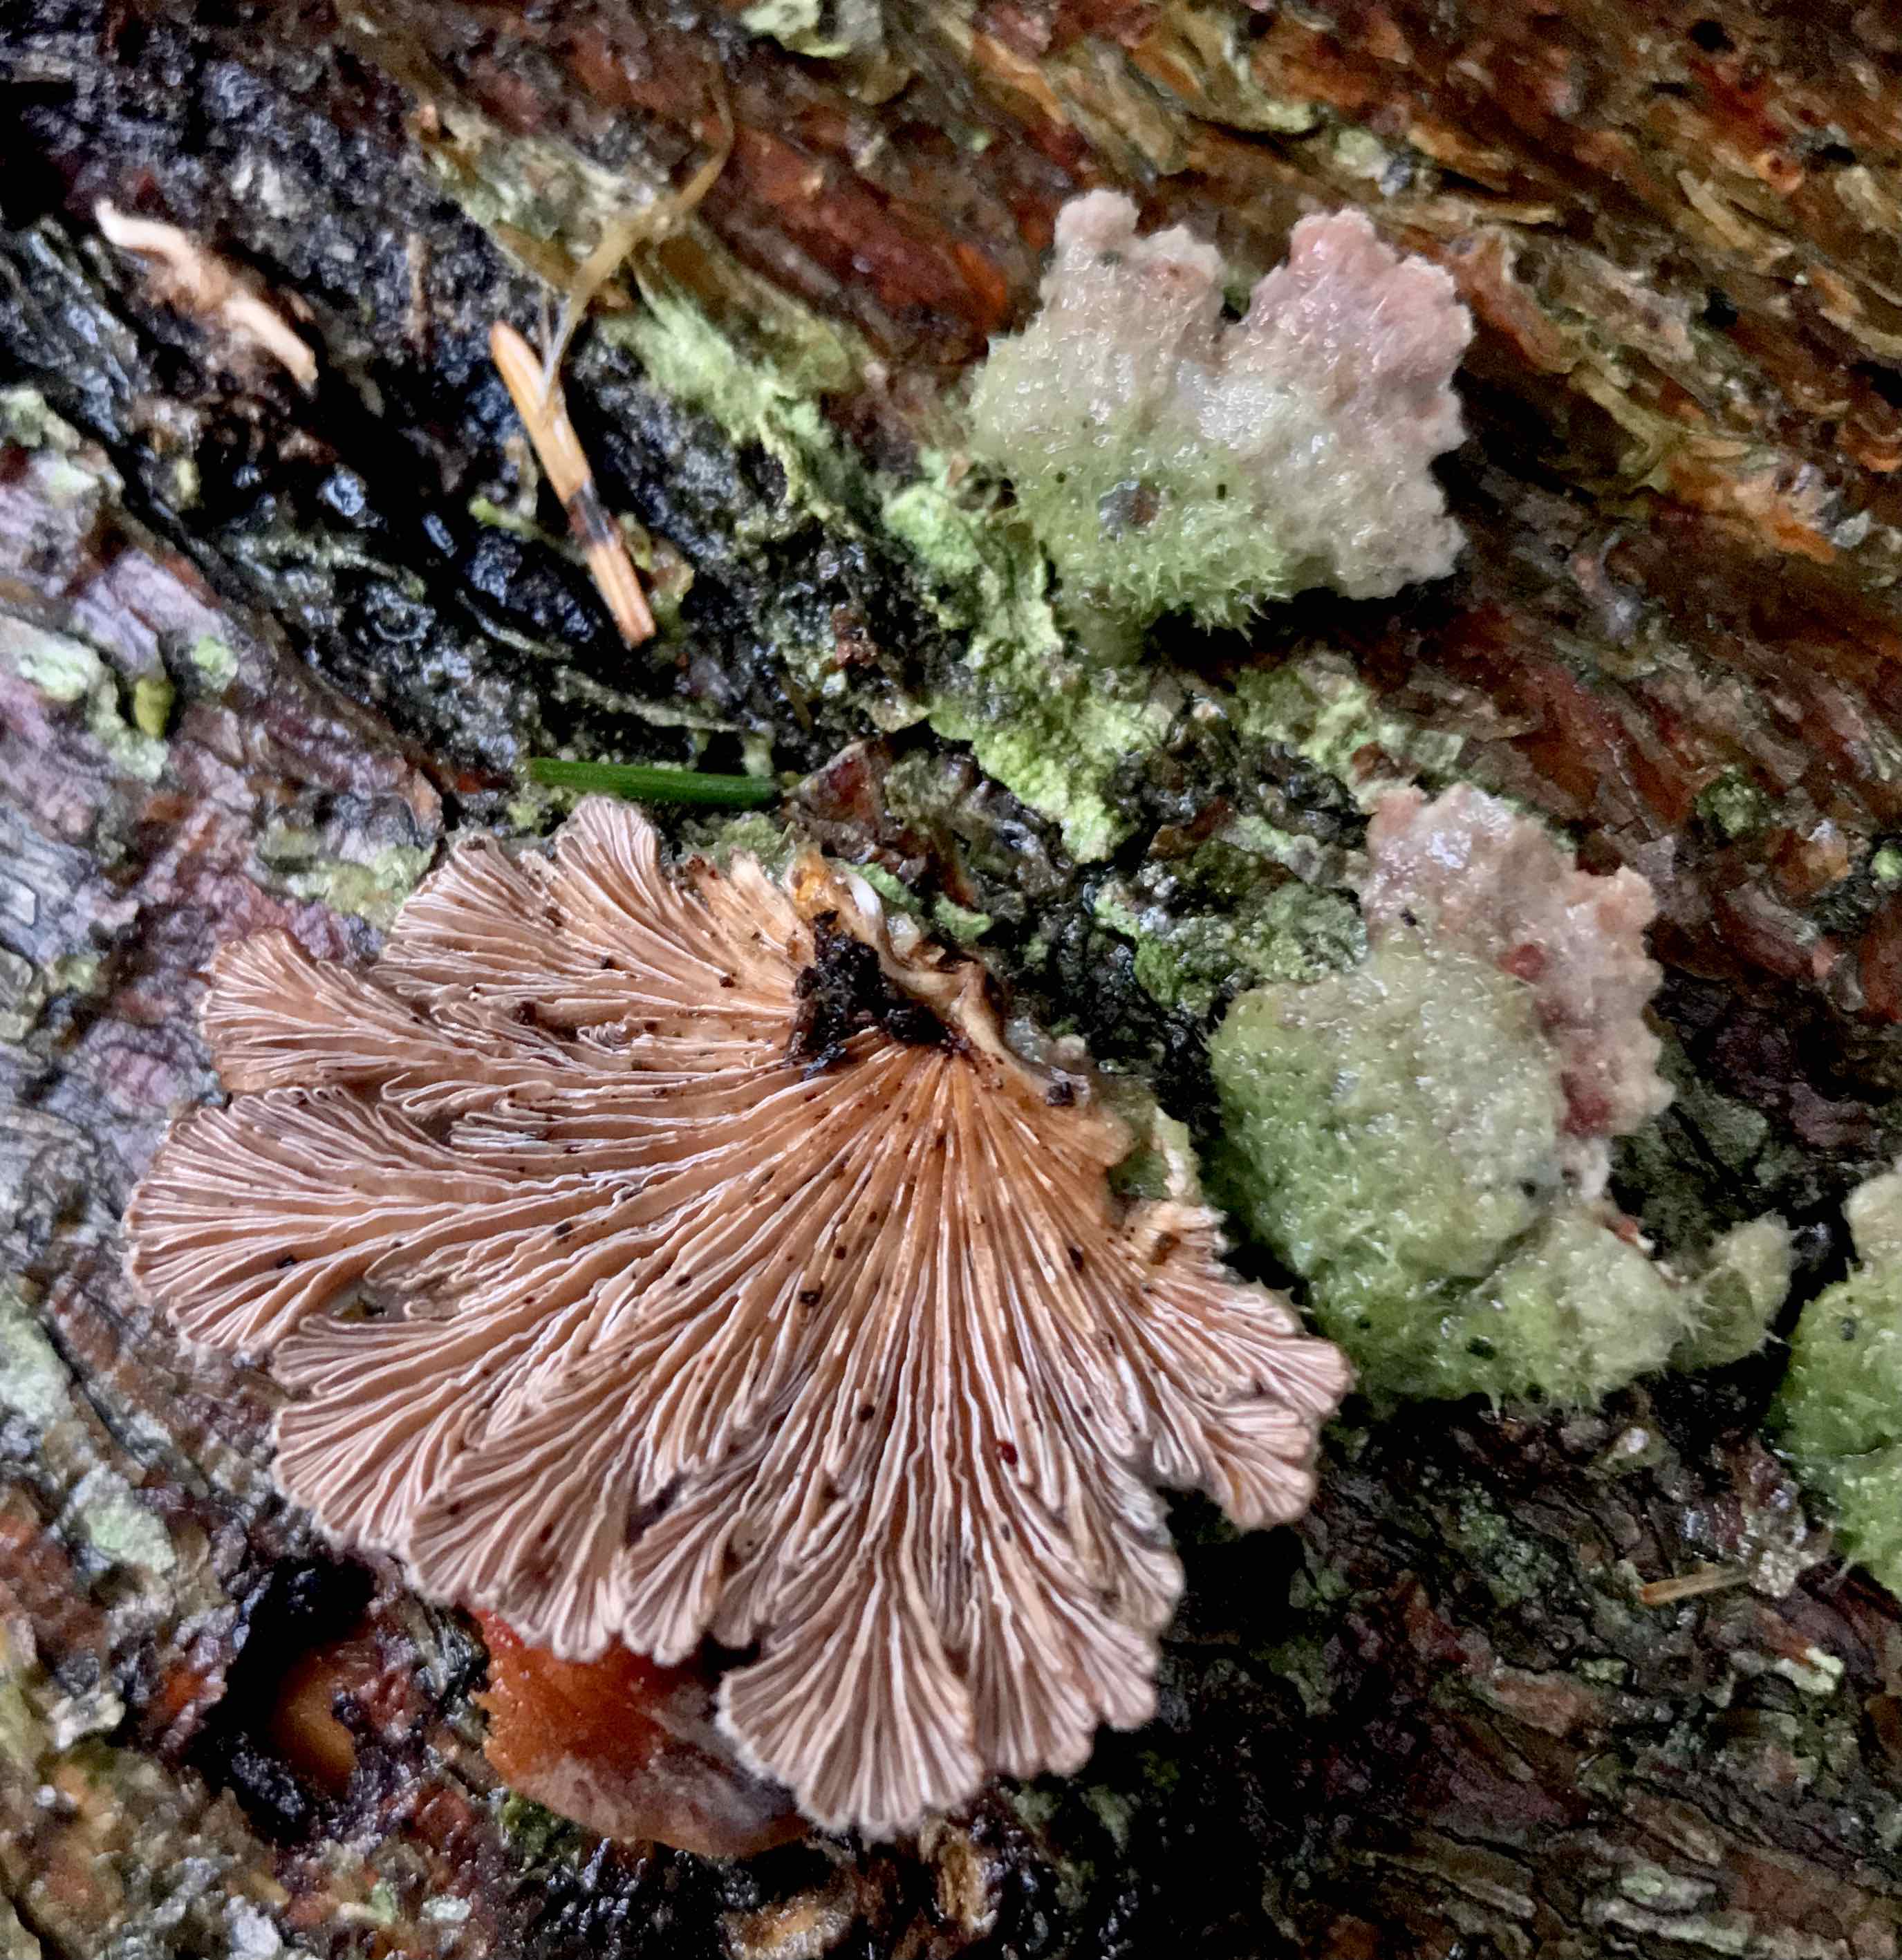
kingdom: Fungi
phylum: Basidiomycota
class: Agaricomycetes
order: Agaricales
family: Schizophyllaceae
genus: Schizophyllum
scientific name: Schizophyllum commune
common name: kløvblad
